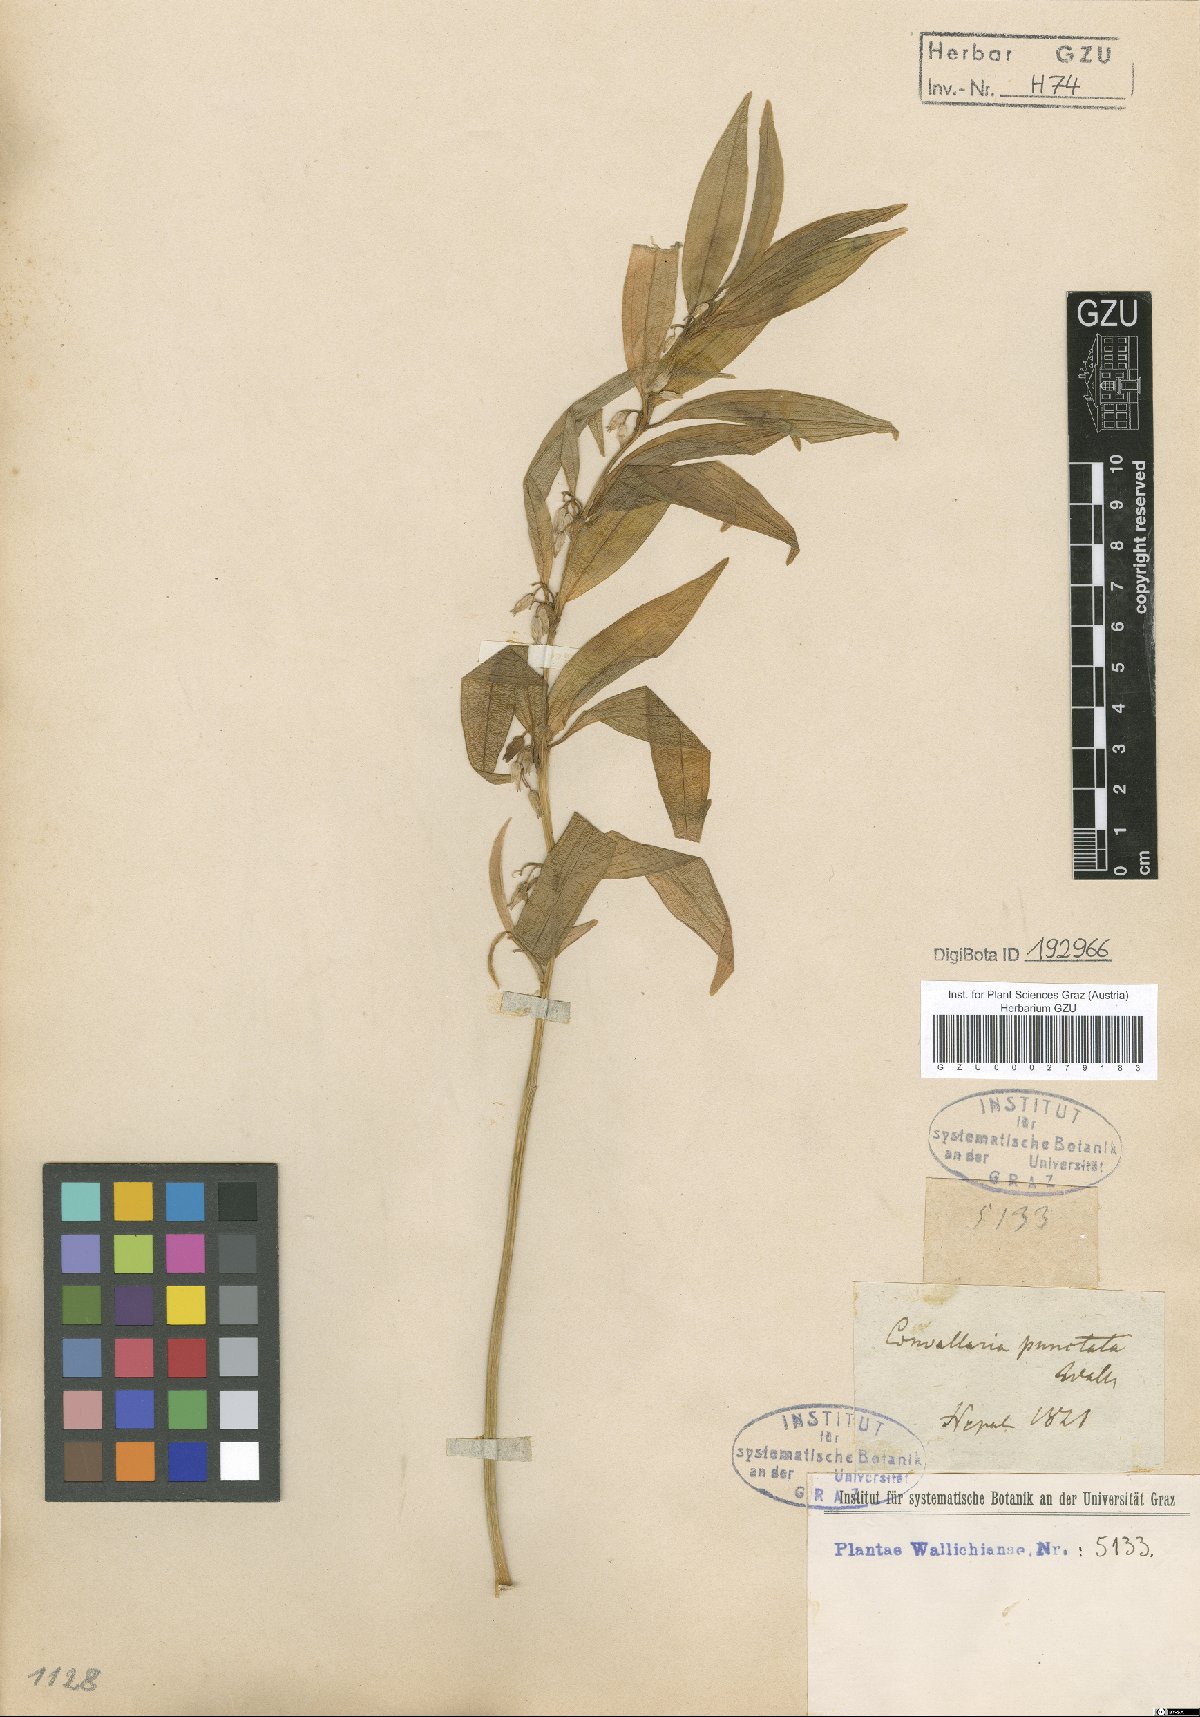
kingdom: Plantae
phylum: Tracheophyta
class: Liliopsida
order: Asparagales
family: Asparagaceae
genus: Polygonatum
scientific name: Polygonatum punctatum
